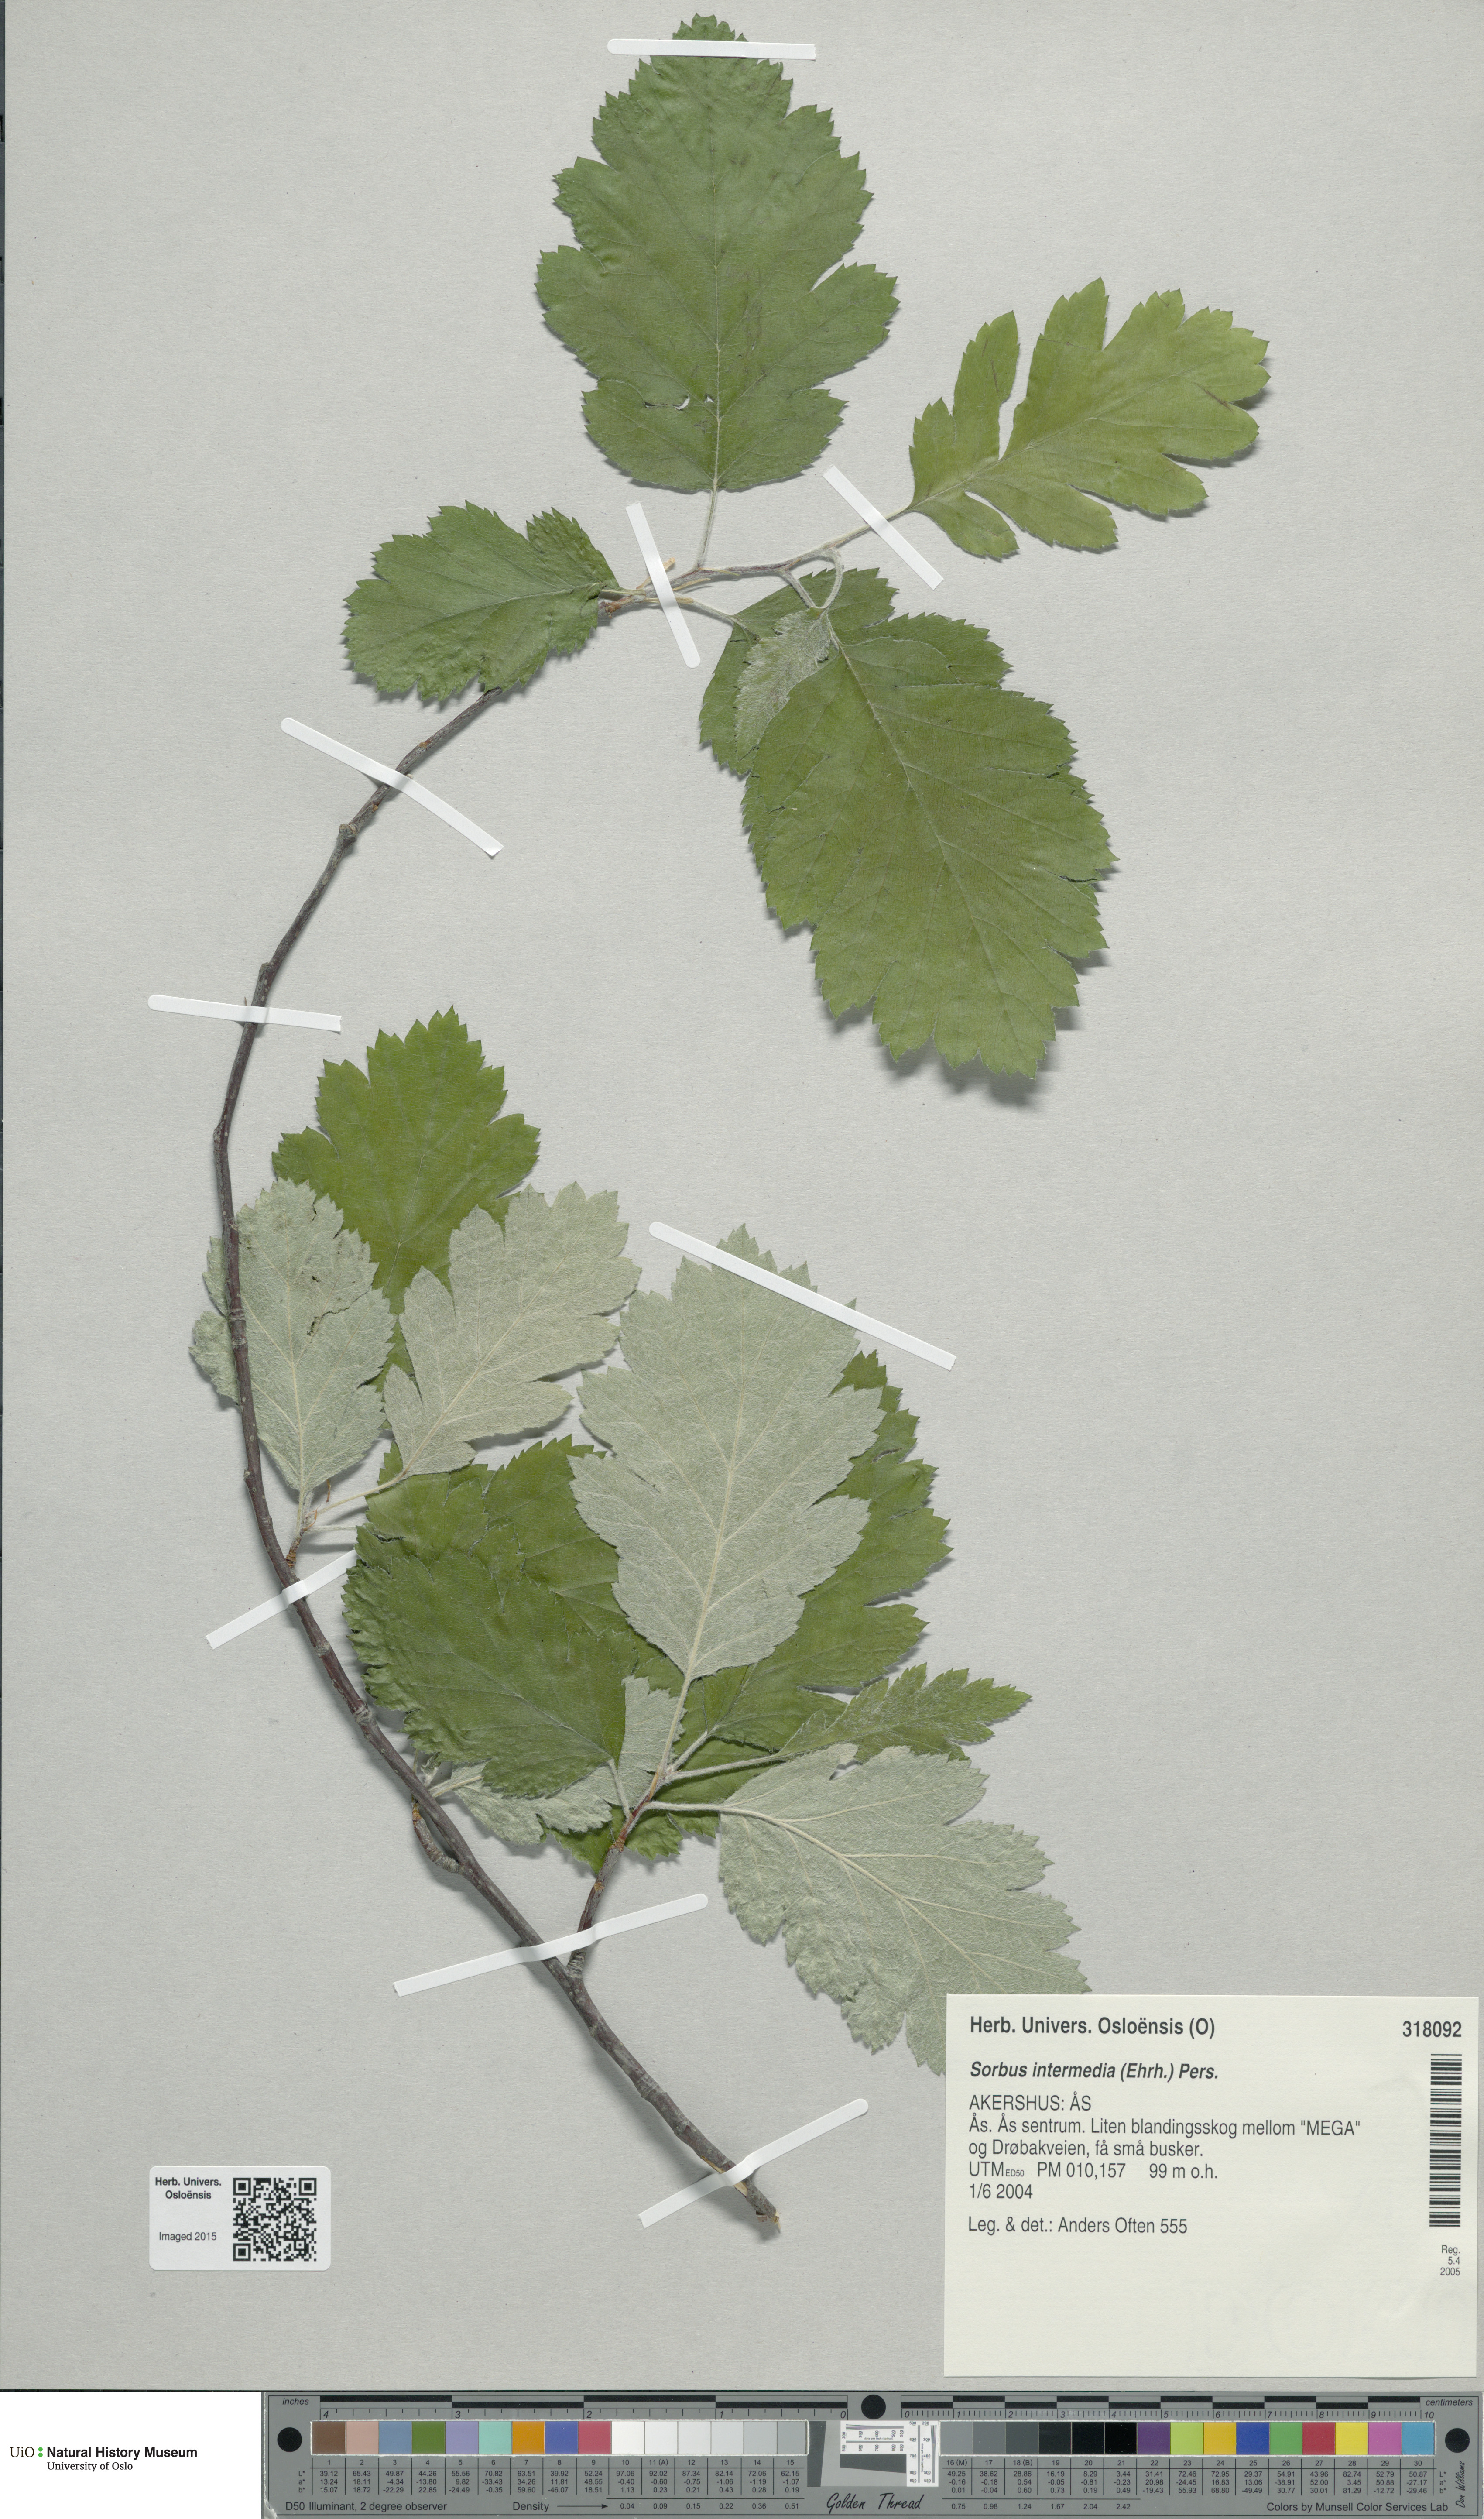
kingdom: Plantae
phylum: Tracheophyta
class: Magnoliopsida
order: Rosales
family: Rosaceae
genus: Scandosorbus
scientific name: Scandosorbus intermedia
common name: Swedish whitebeam
